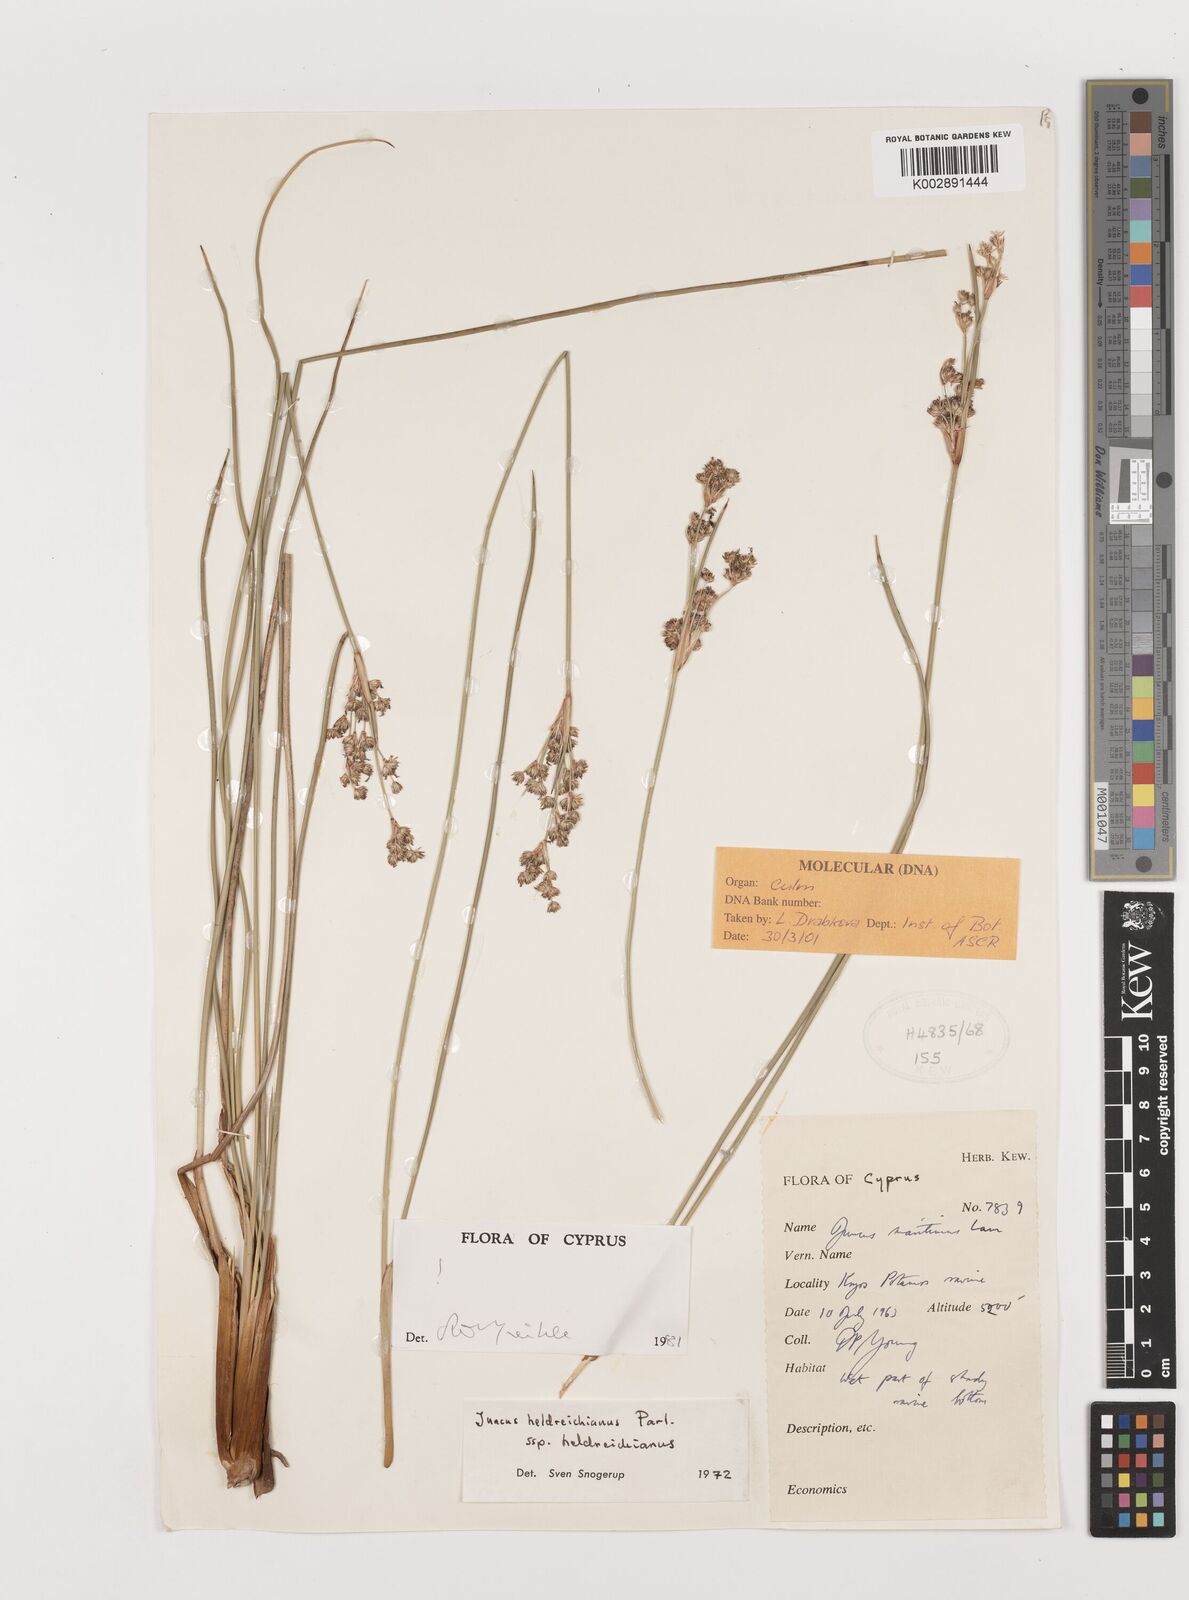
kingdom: Plantae
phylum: Tracheophyta
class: Liliopsida
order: Poales
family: Juncaceae
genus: Juncus
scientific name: Juncus heldreichianus
